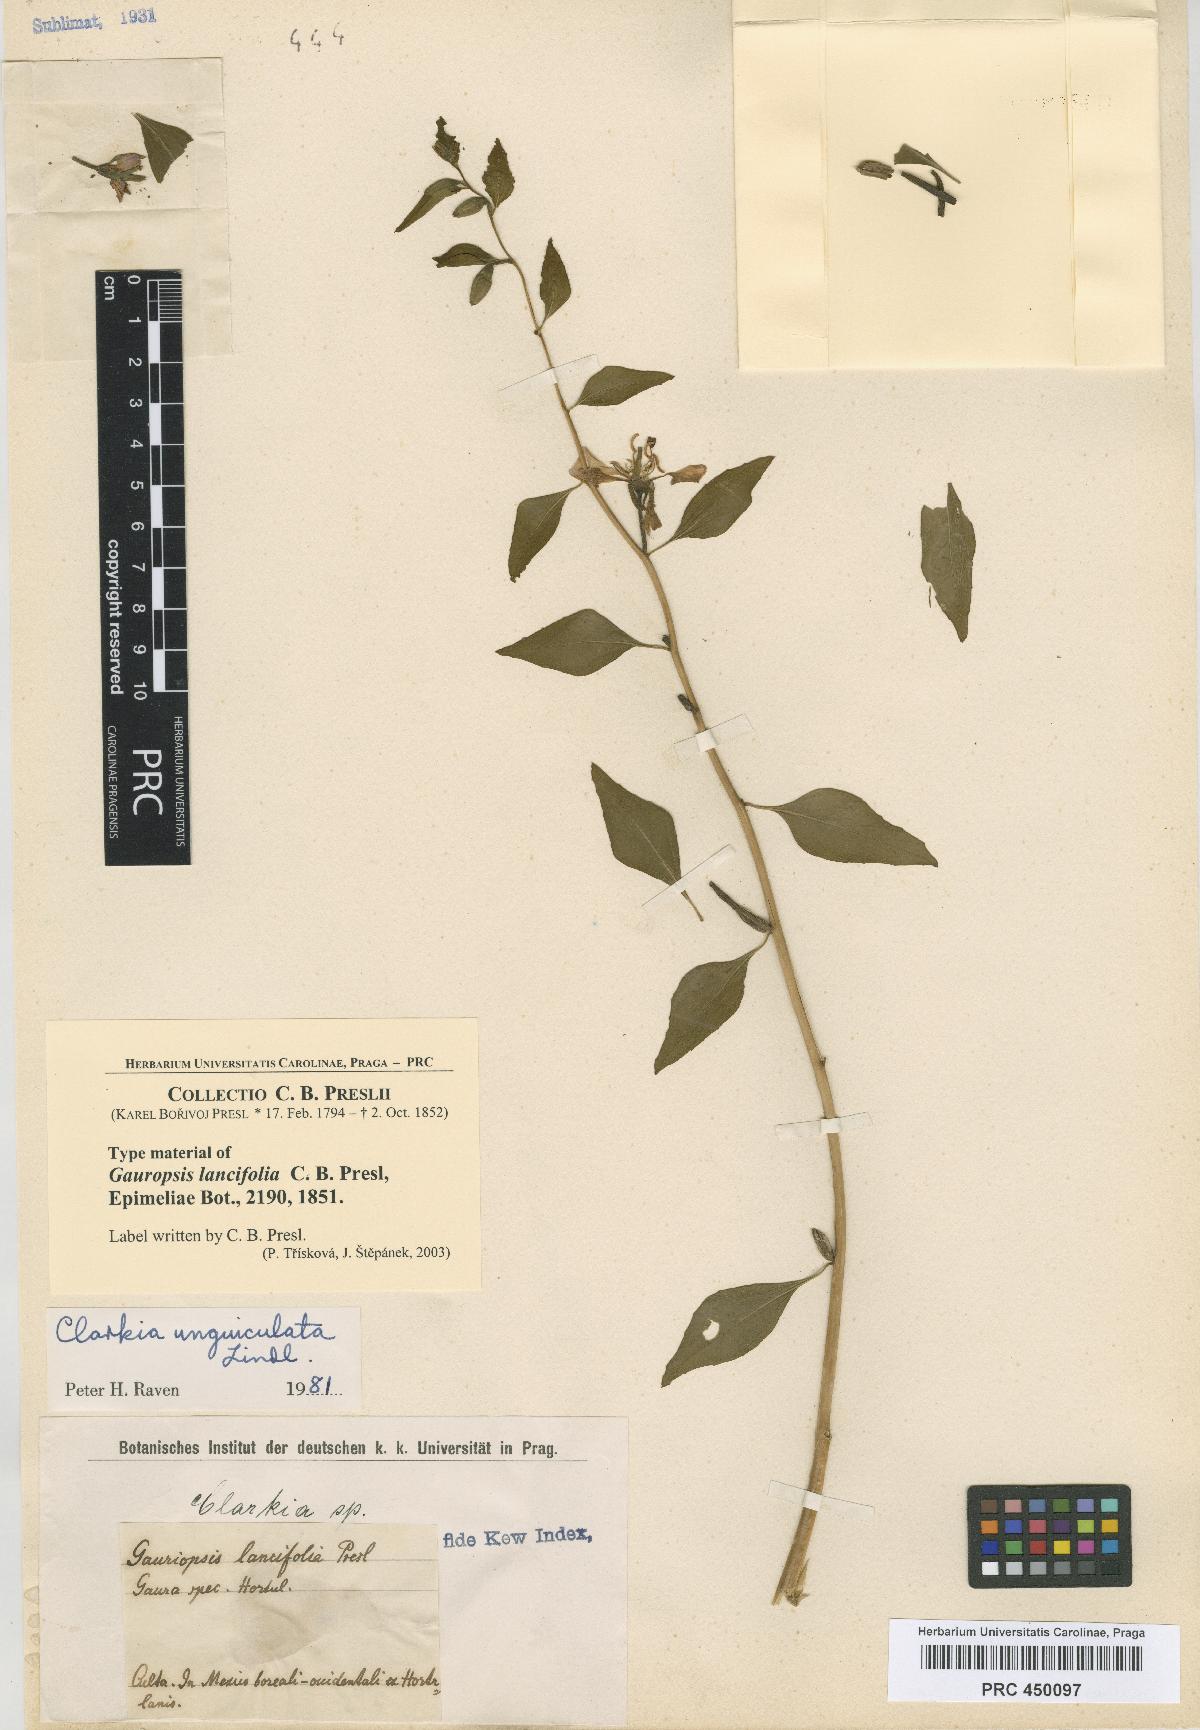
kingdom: Plantae
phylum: Tracheophyta
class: Magnoliopsida
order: Myrtales
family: Onagraceae
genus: Clarkia
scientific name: Clarkia unguiculata
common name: Clarkia
